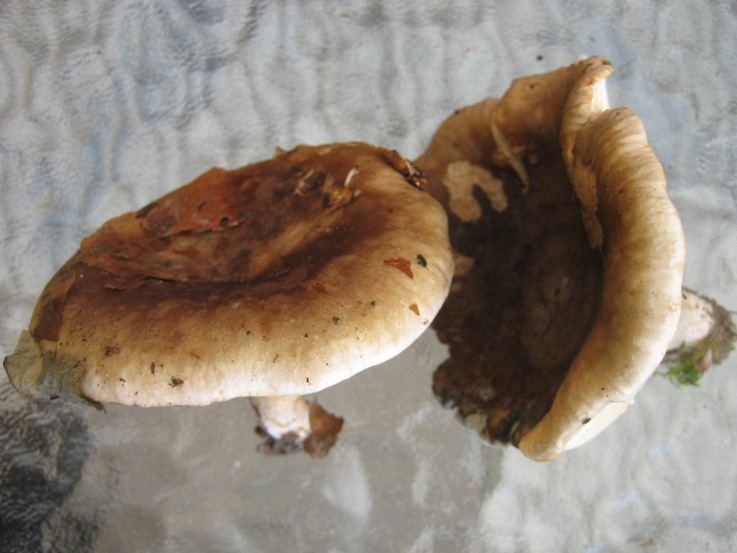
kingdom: Fungi
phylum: Basidiomycota
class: Agaricomycetes
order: Russulales
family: Russulaceae
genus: Lactarius
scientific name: Lactarius fluens
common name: lysrandet mælkehat
